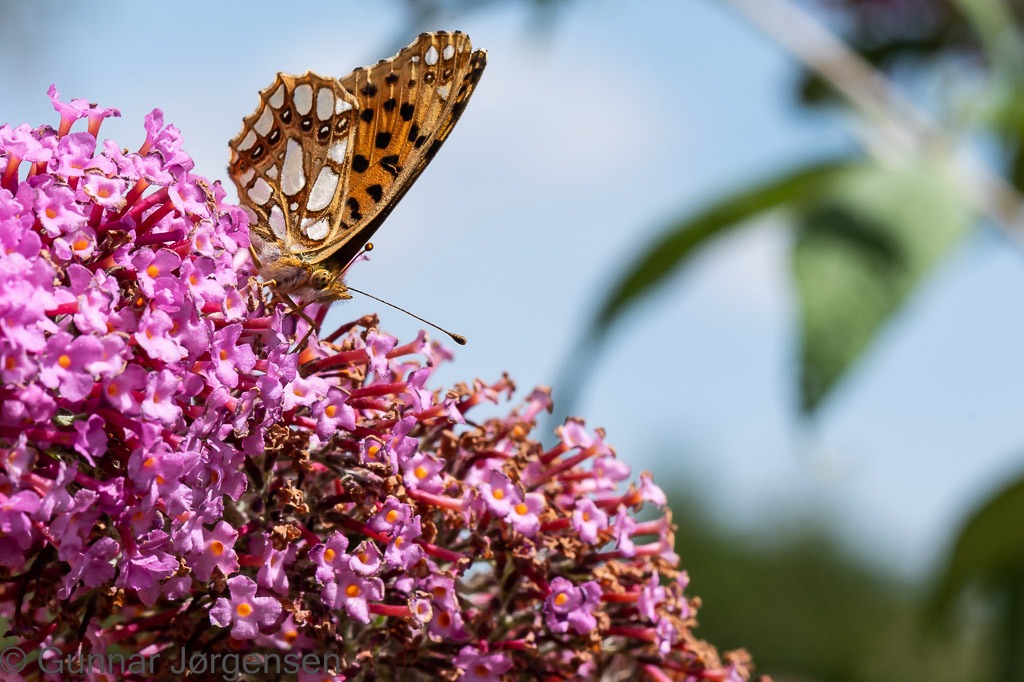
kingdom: Animalia
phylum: Arthropoda
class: Insecta
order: Lepidoptera
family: Nymphalidae
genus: Issoria
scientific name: Issoria lathonia
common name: Storplettet perlemorsommerfugl
